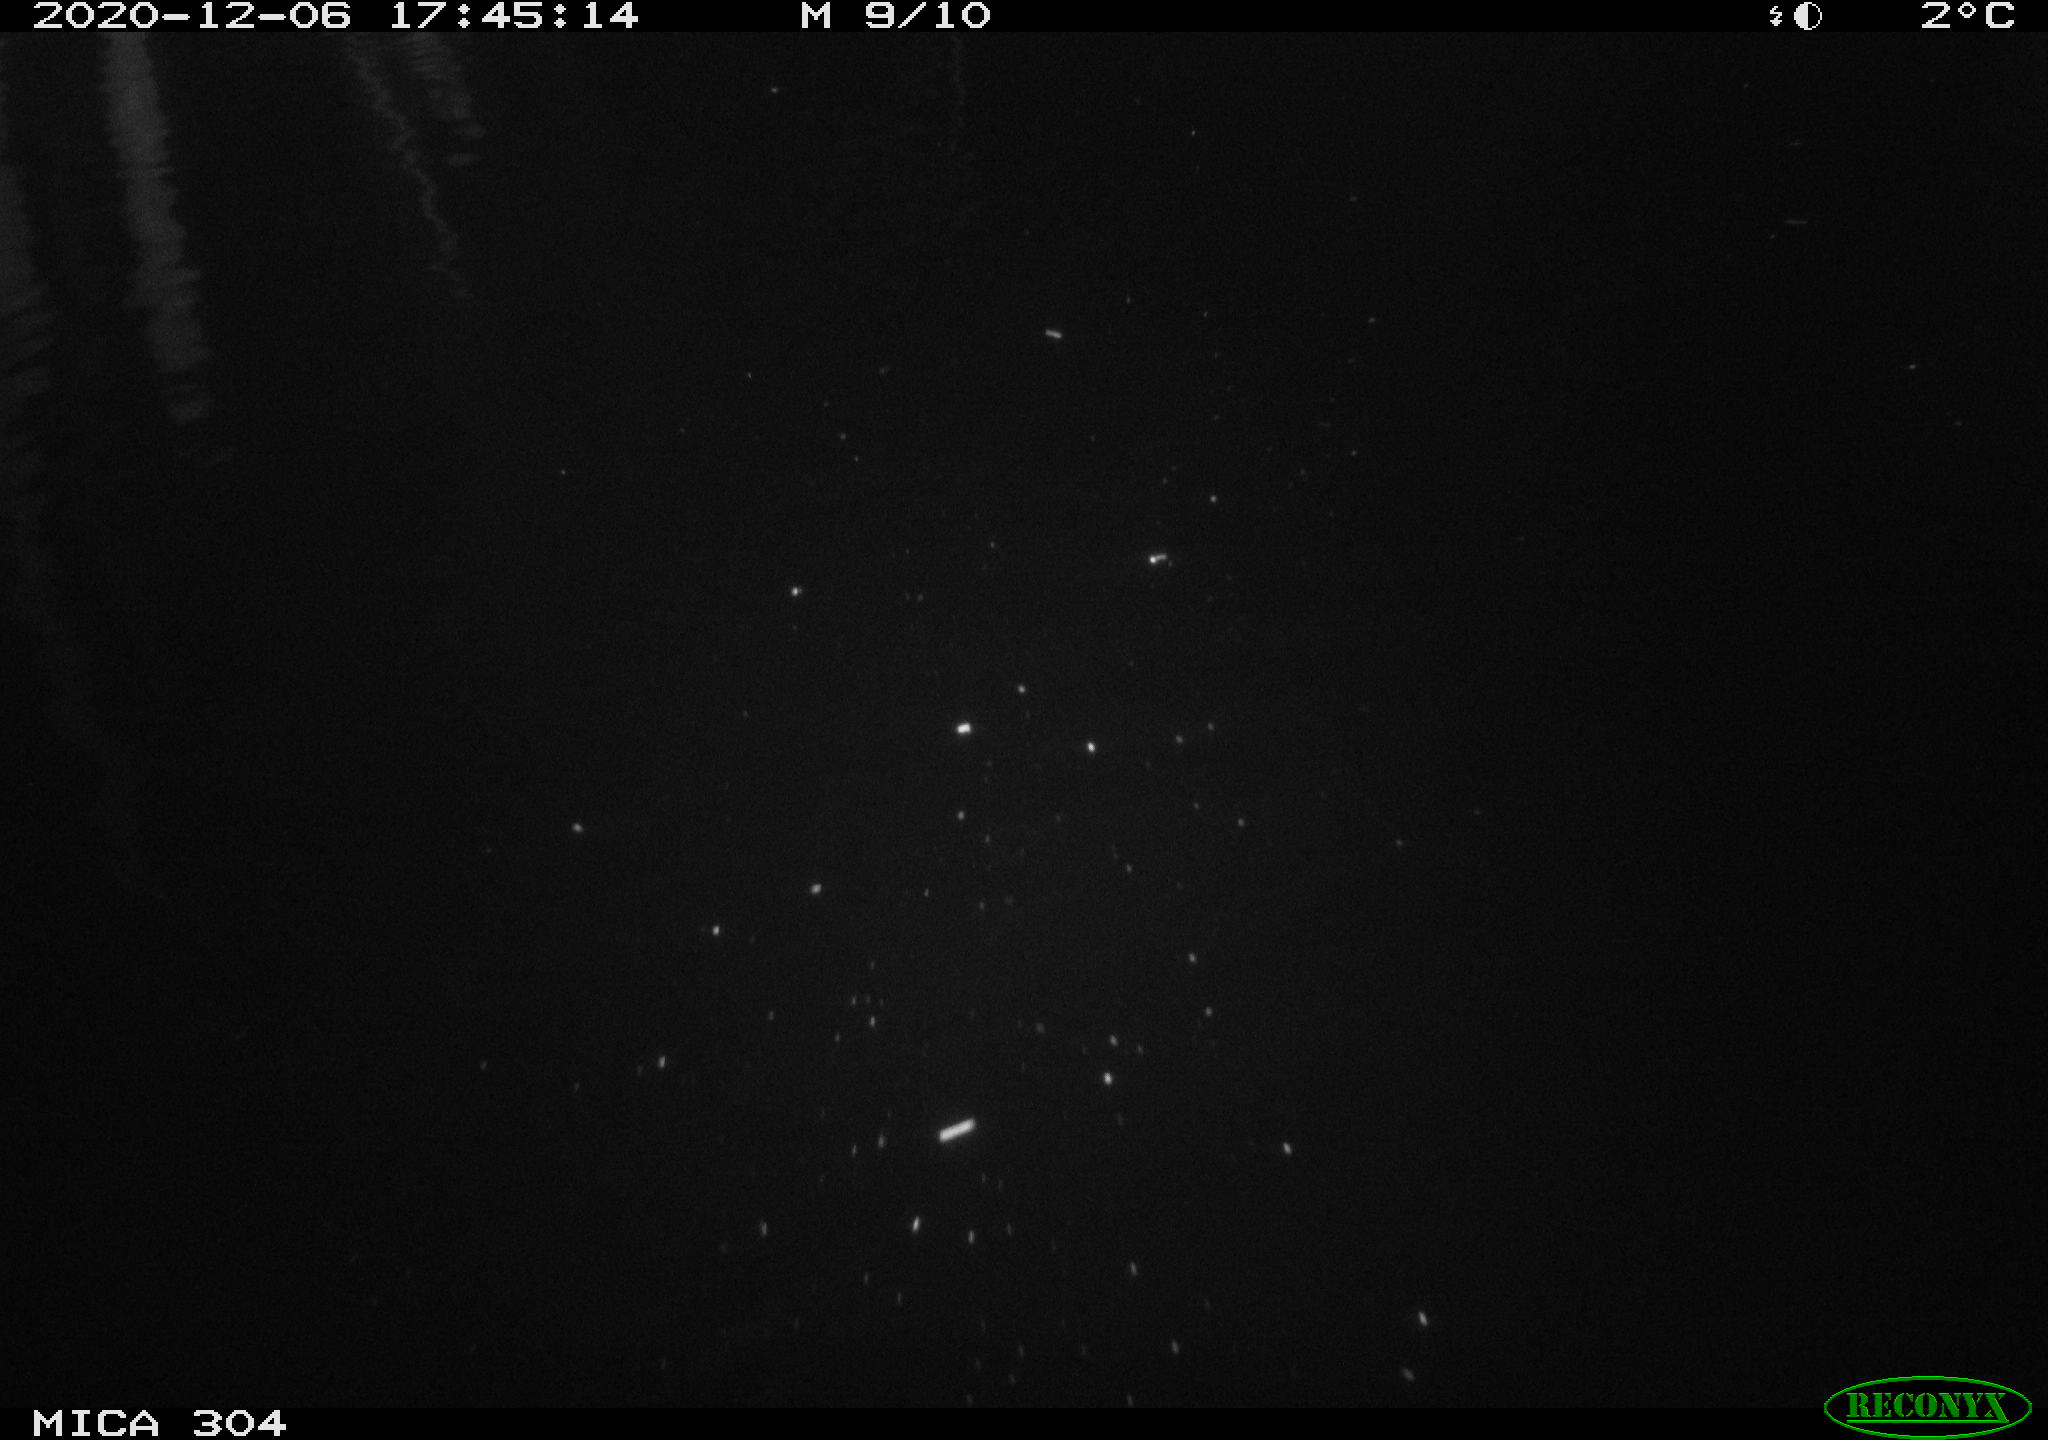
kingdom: Animalia
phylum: Chordata
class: Mammalia
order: Rodentia
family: Muridae
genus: Rattus
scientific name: Rattus norvegicus
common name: Brown rat
